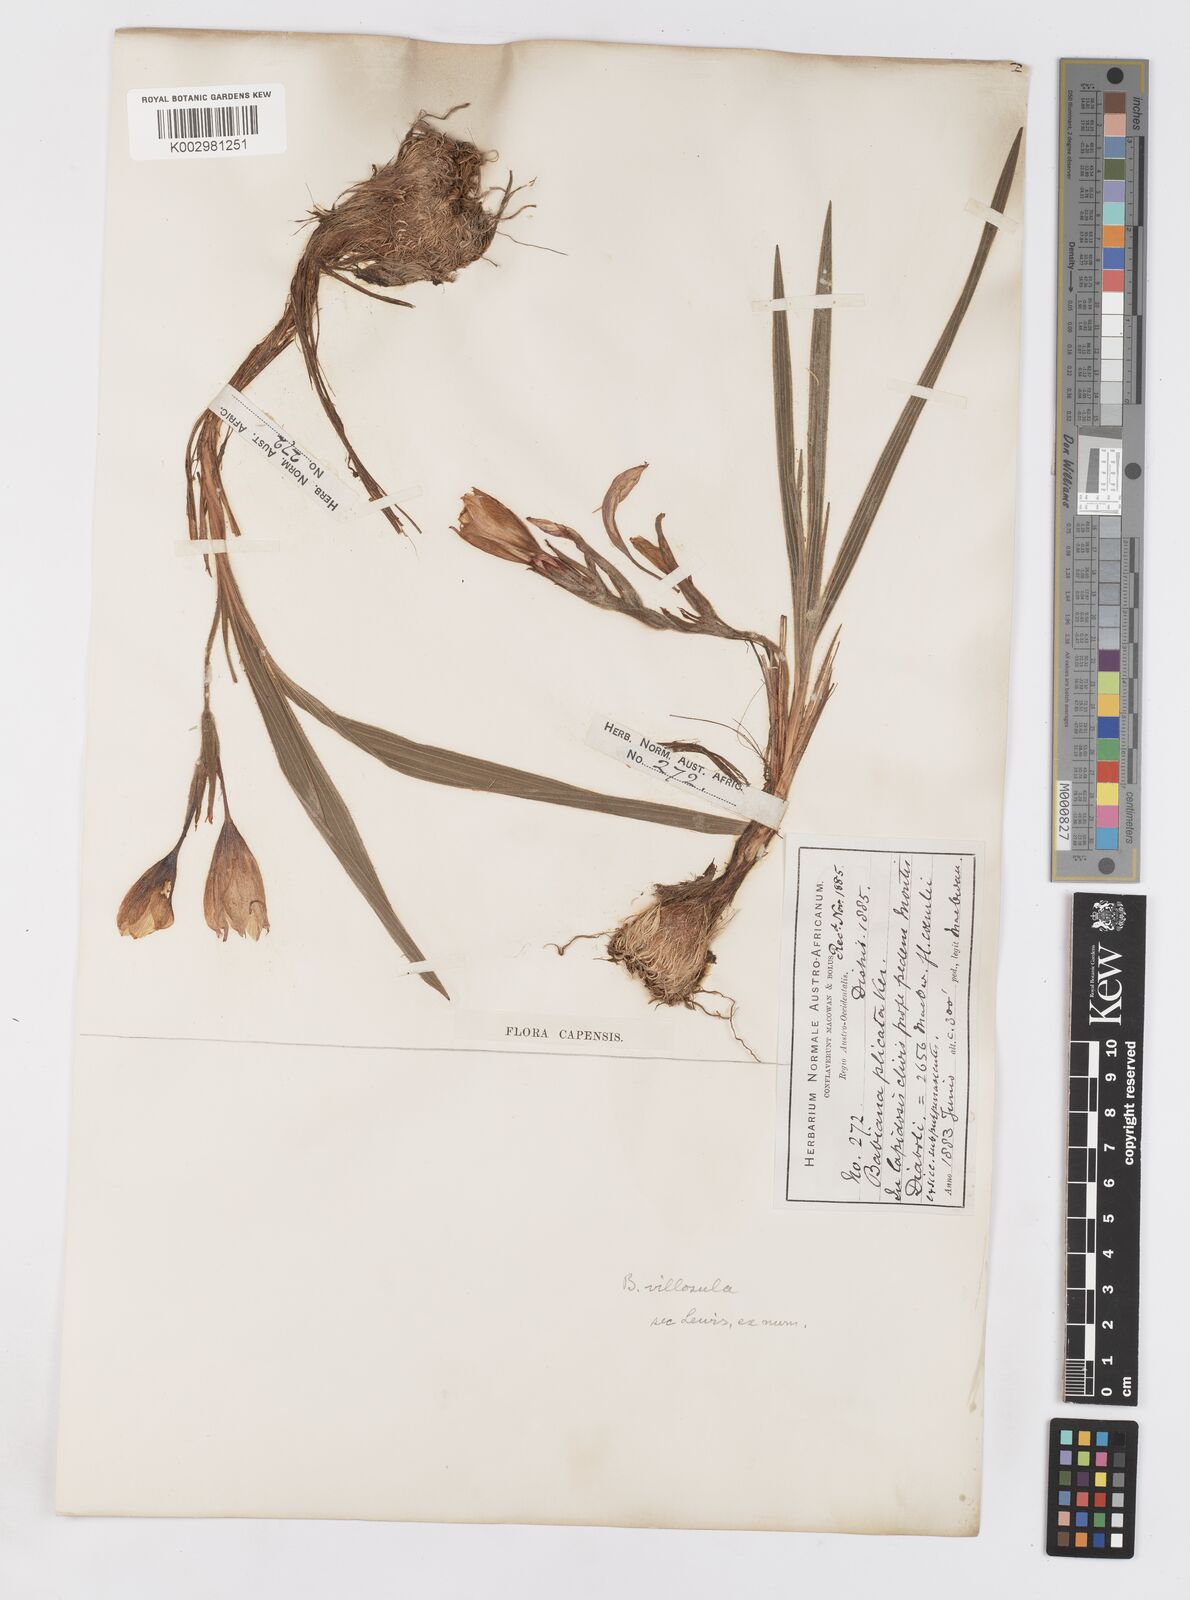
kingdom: Plantae
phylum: Tracheophyta
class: Liliopsida
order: Asparagales
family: Iridaceae
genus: Babiana
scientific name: Babiana villosula
